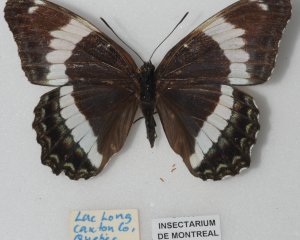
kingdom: Animalia
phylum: Arthropoda
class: Insecta
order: Lepidoptera
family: Nymphalidae
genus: Limenitis
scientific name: Limenitis arthemis
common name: Red-spotted Admiral
